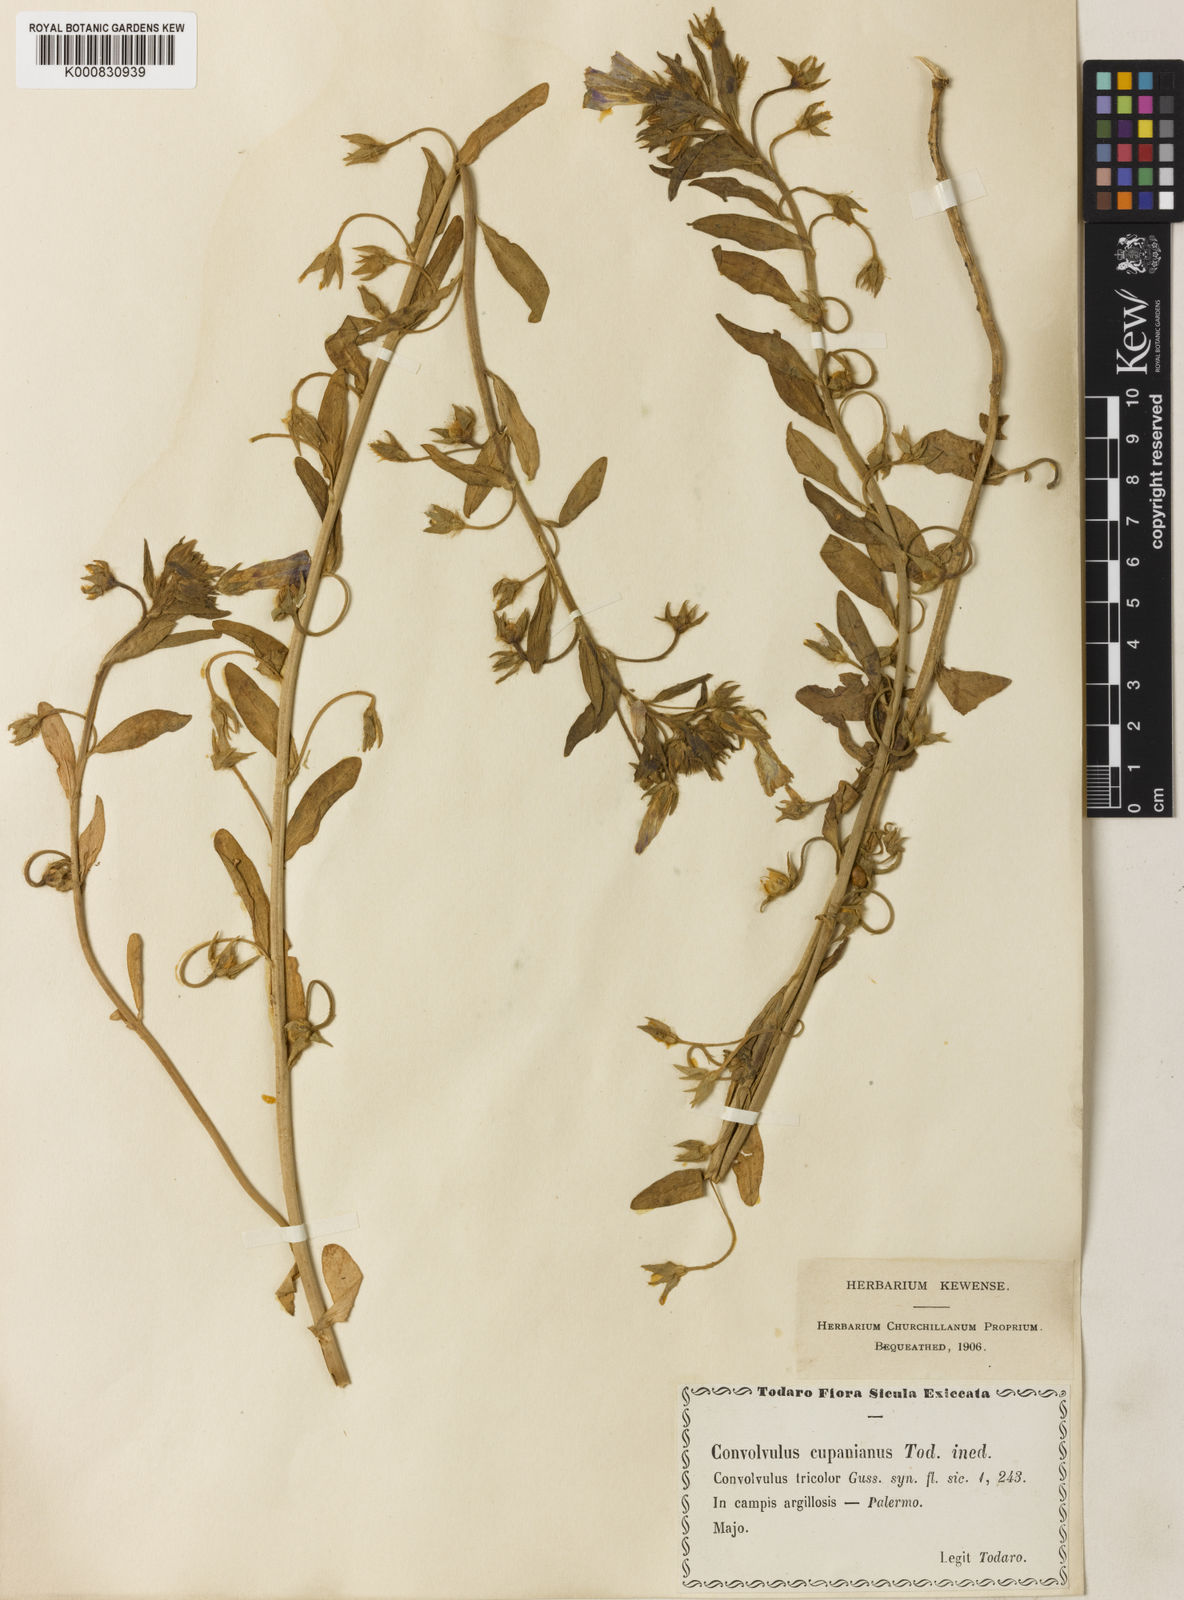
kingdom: Plantae
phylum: Tracheophyta
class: Magnoliopsida
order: Solanales
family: Convolvulaceae
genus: Convolvulus
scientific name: Convolvulus tricolor
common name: Dwarf morning-glory
